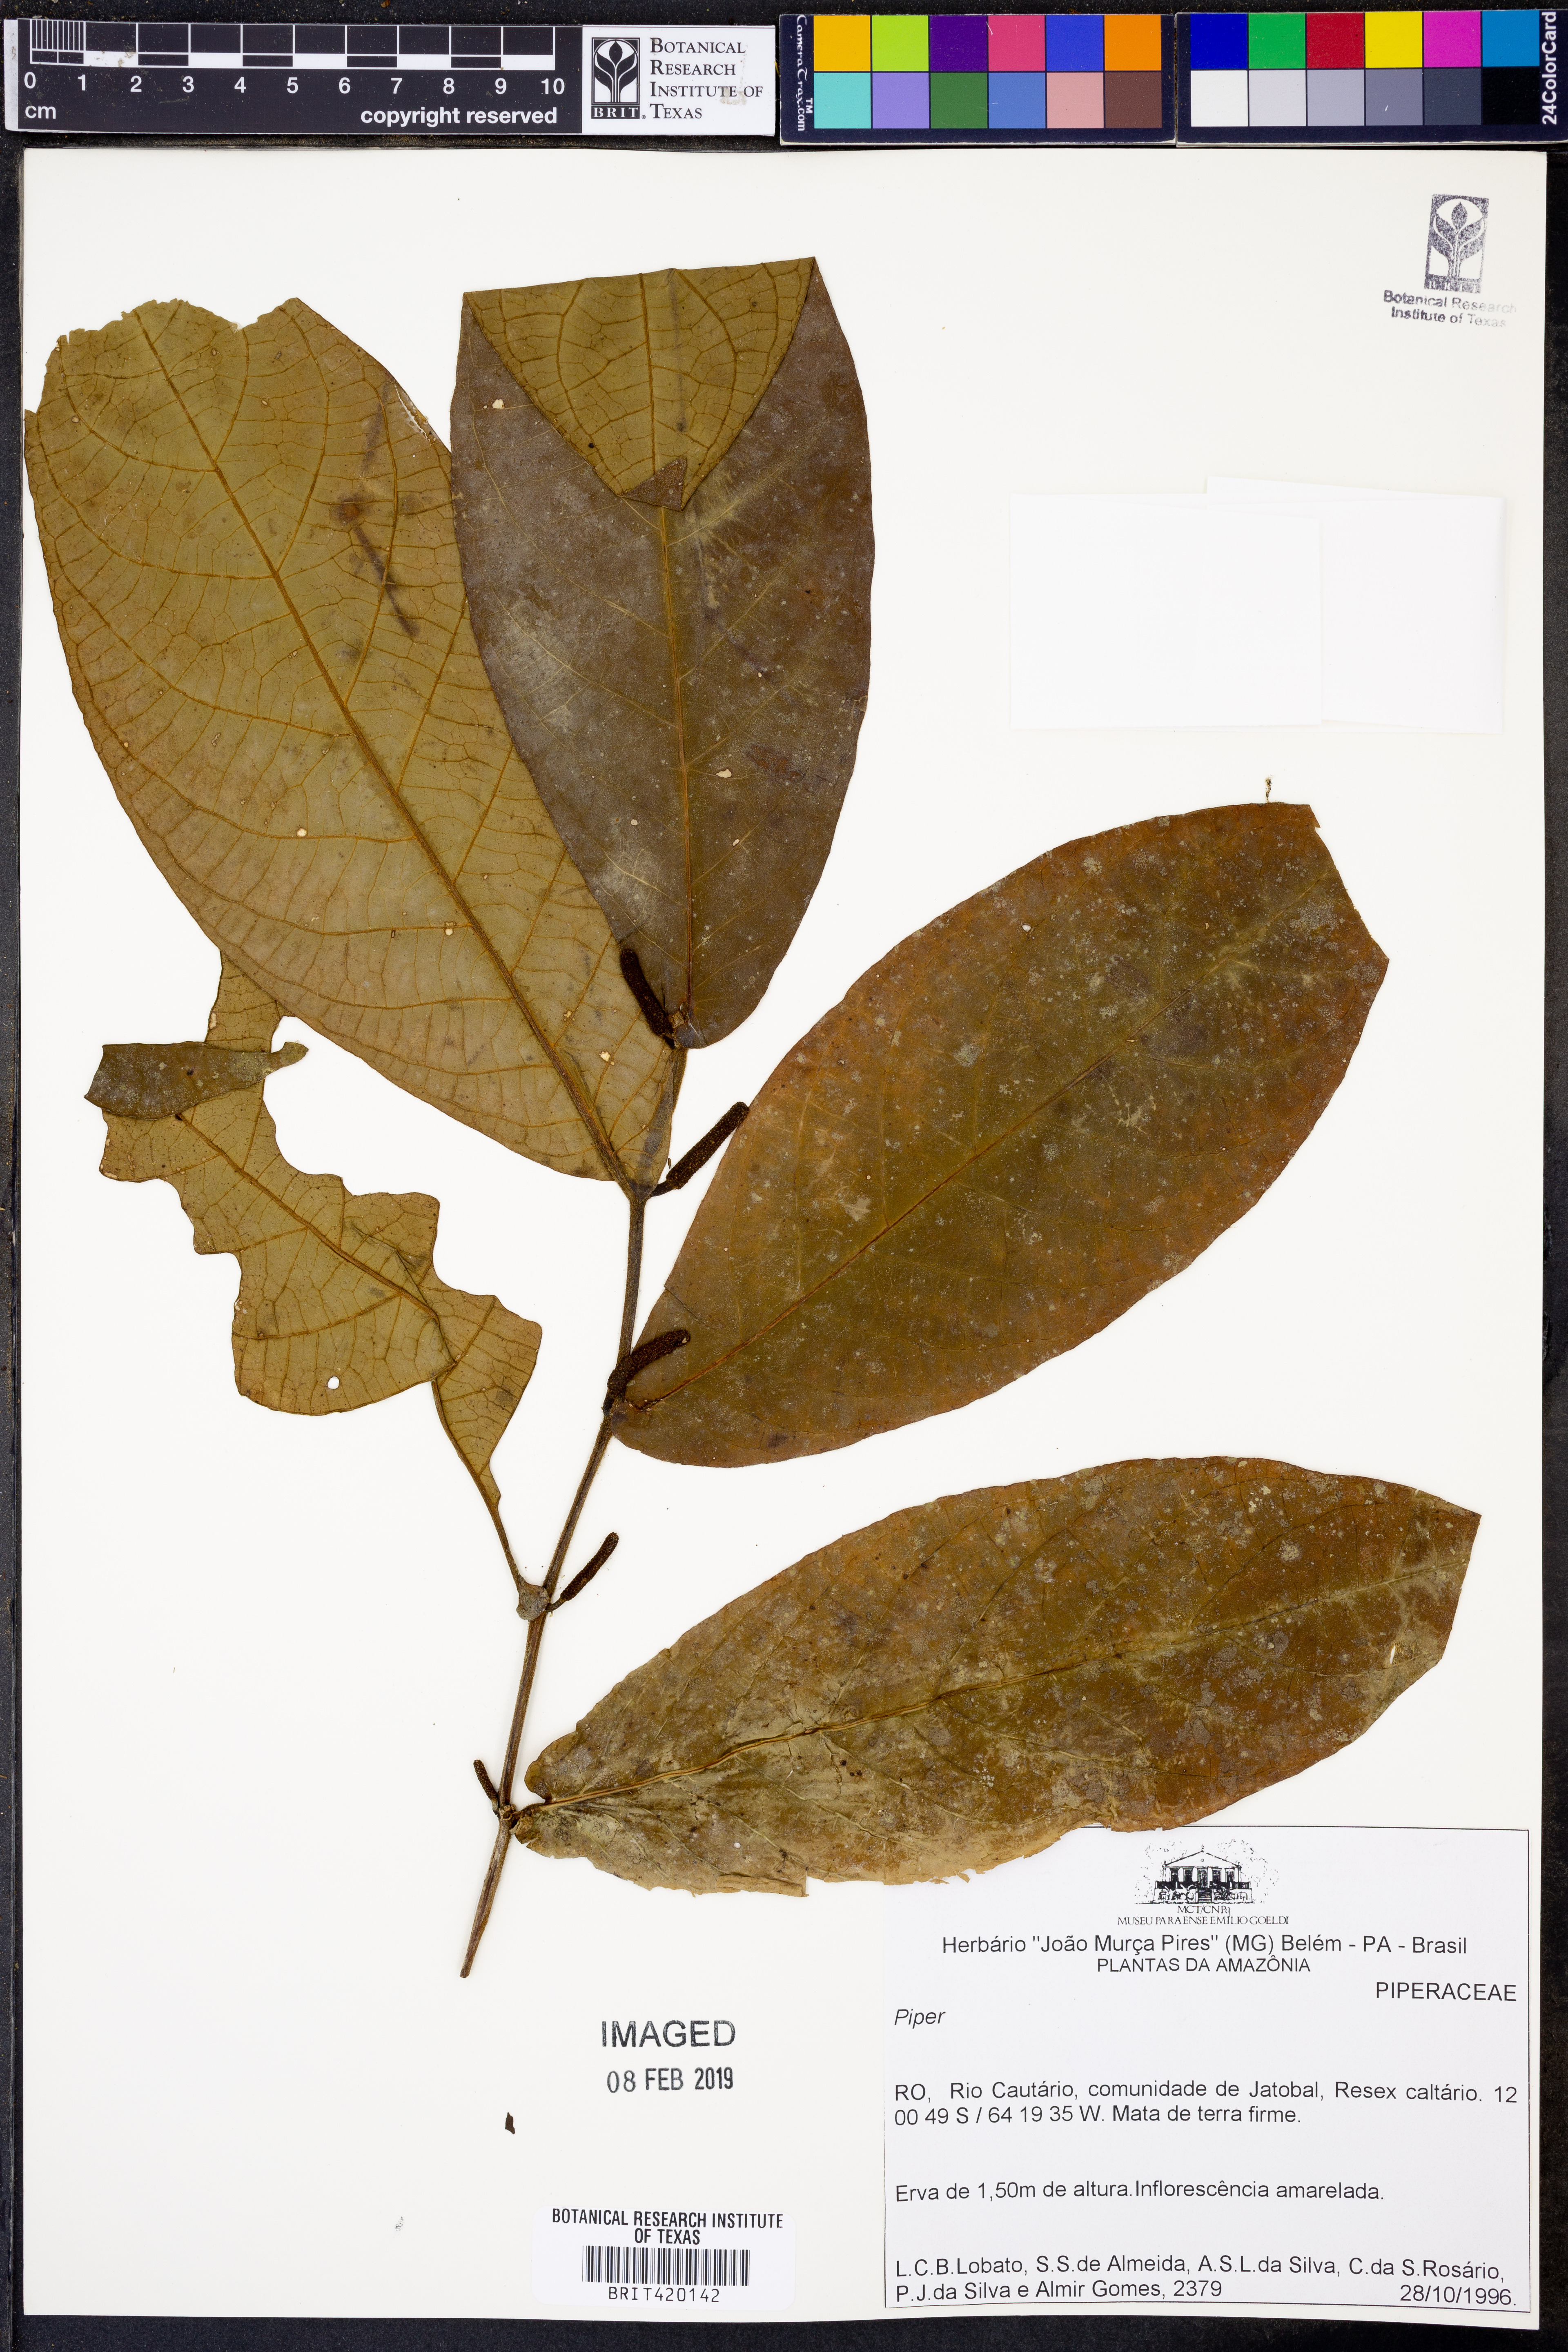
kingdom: Plantae
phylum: Tracheophyta
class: Magnoliopsida
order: Piperales
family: Piperaceae
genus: Piper
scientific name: Piper
